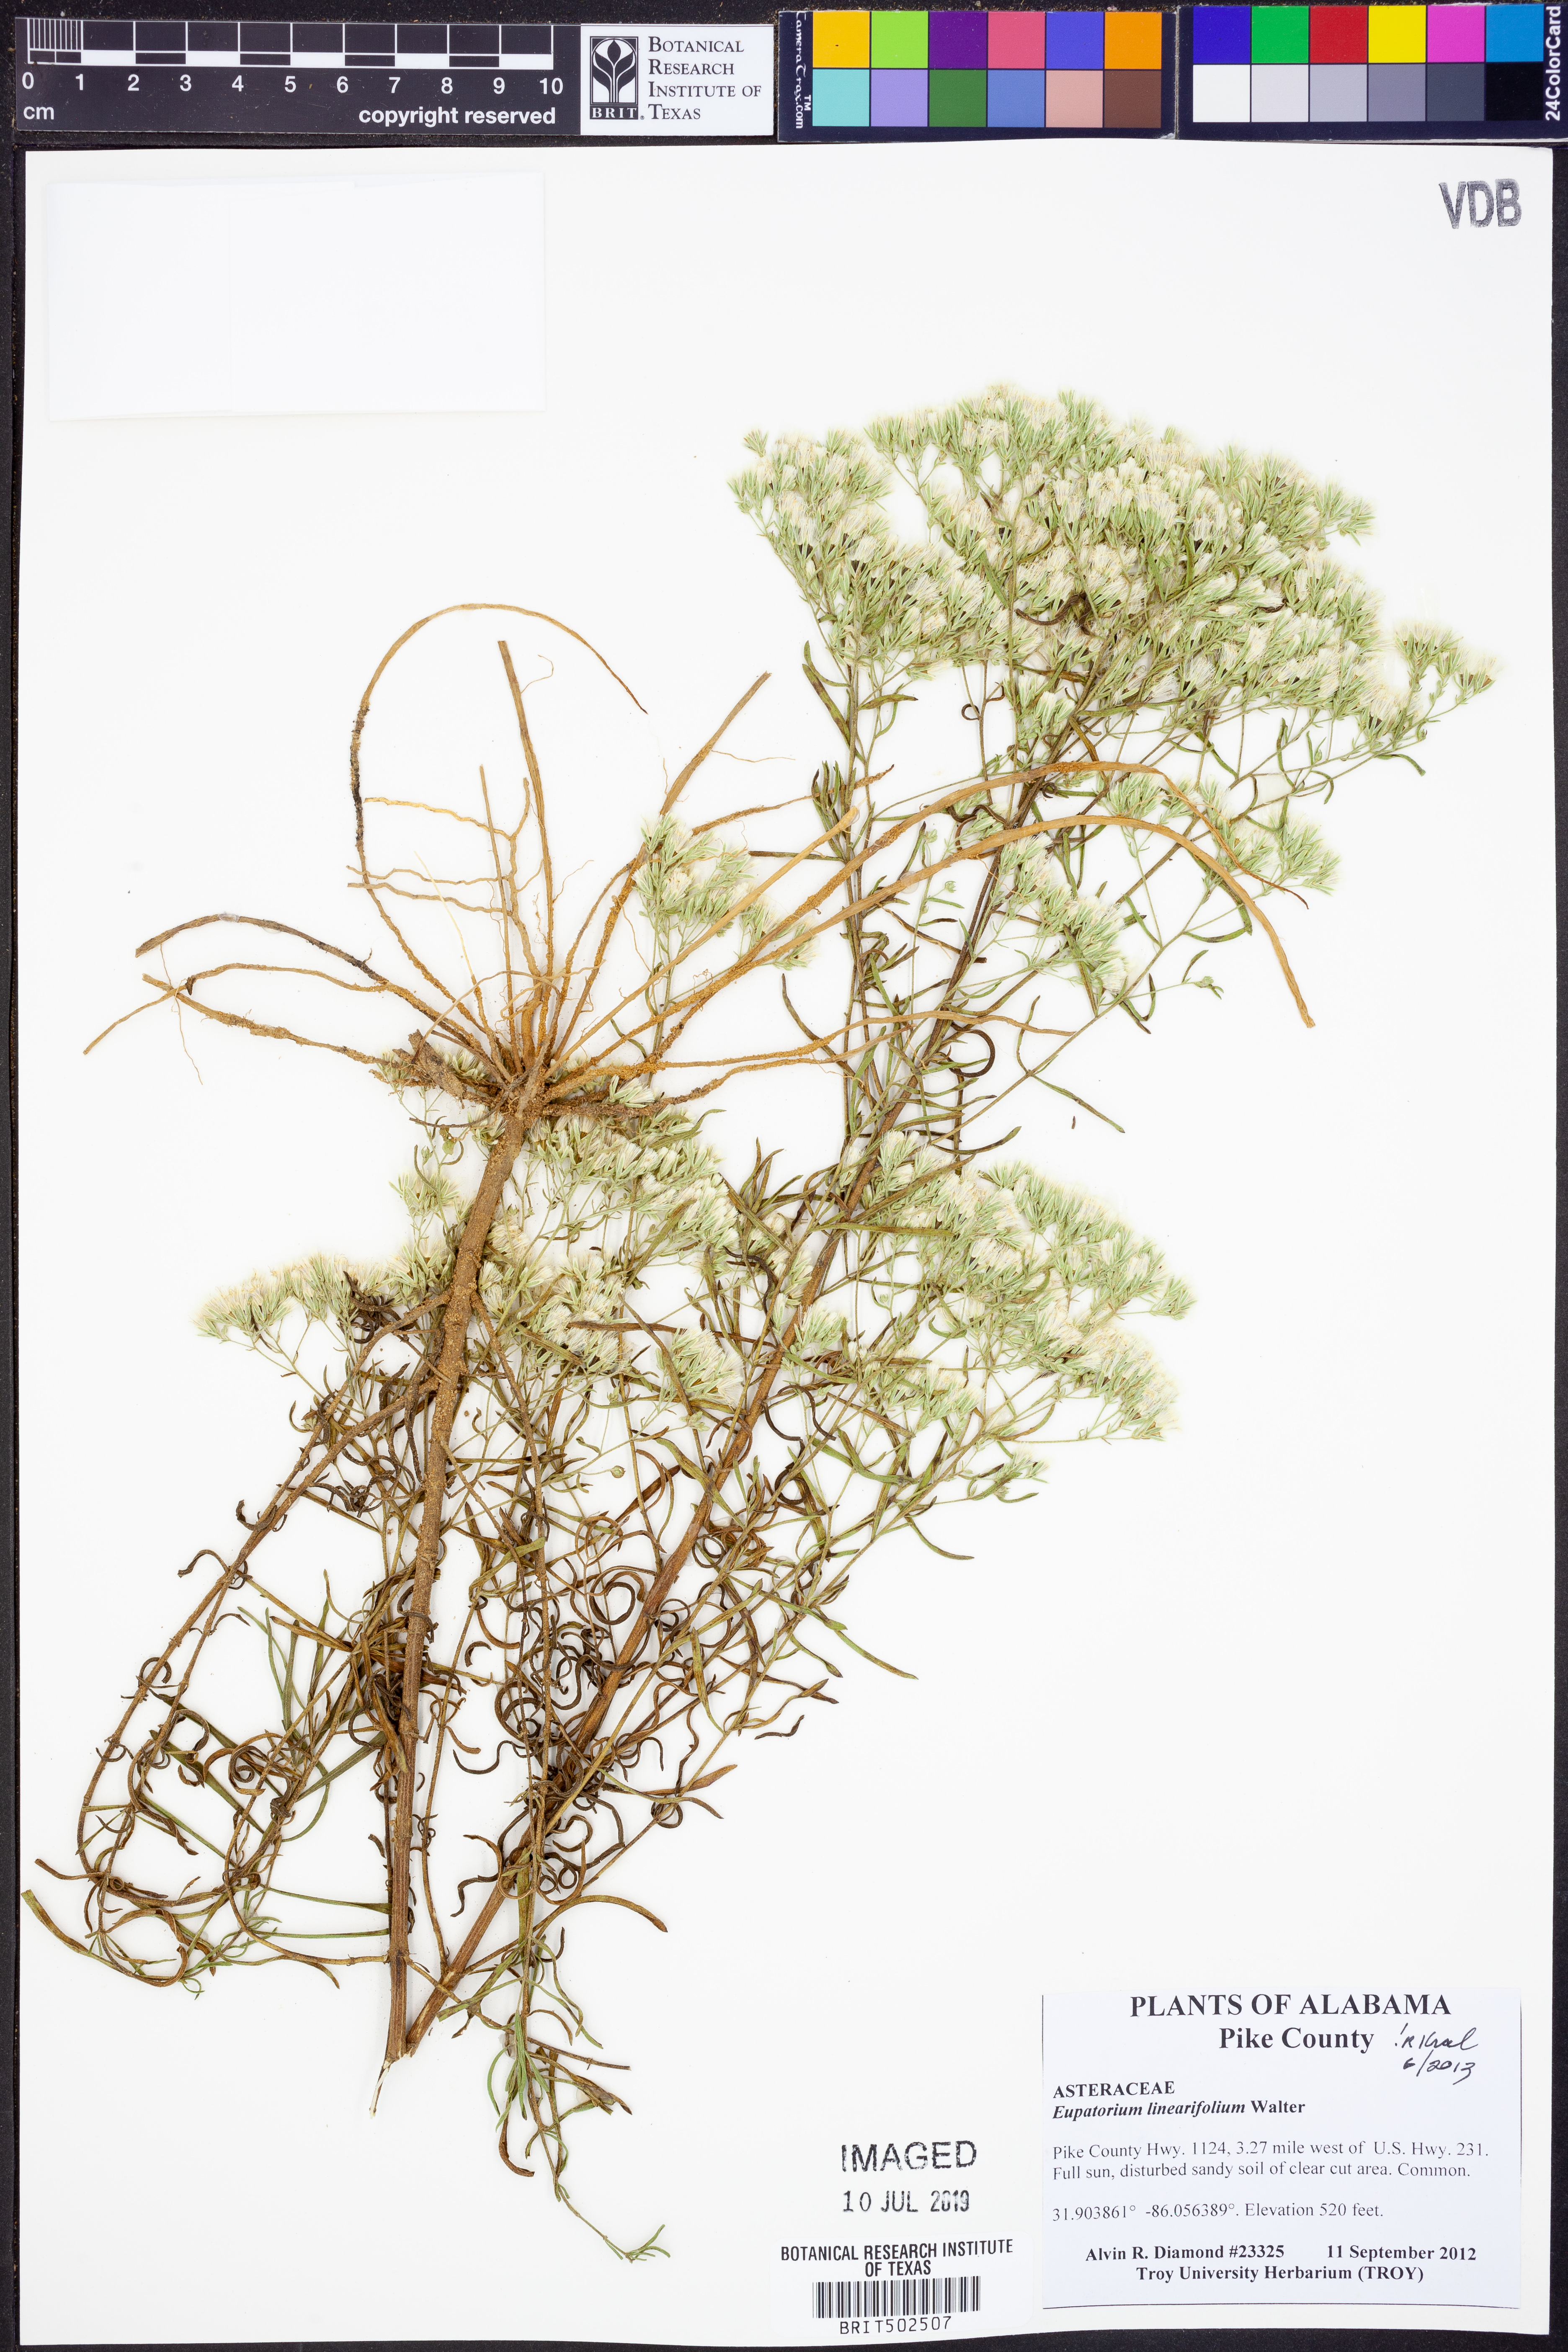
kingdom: Plantae
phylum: Tracheophyta
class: Magnoliopsida
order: Asterales
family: Asteraceae
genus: Eupatorium
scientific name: Eupatorium linearifolium
